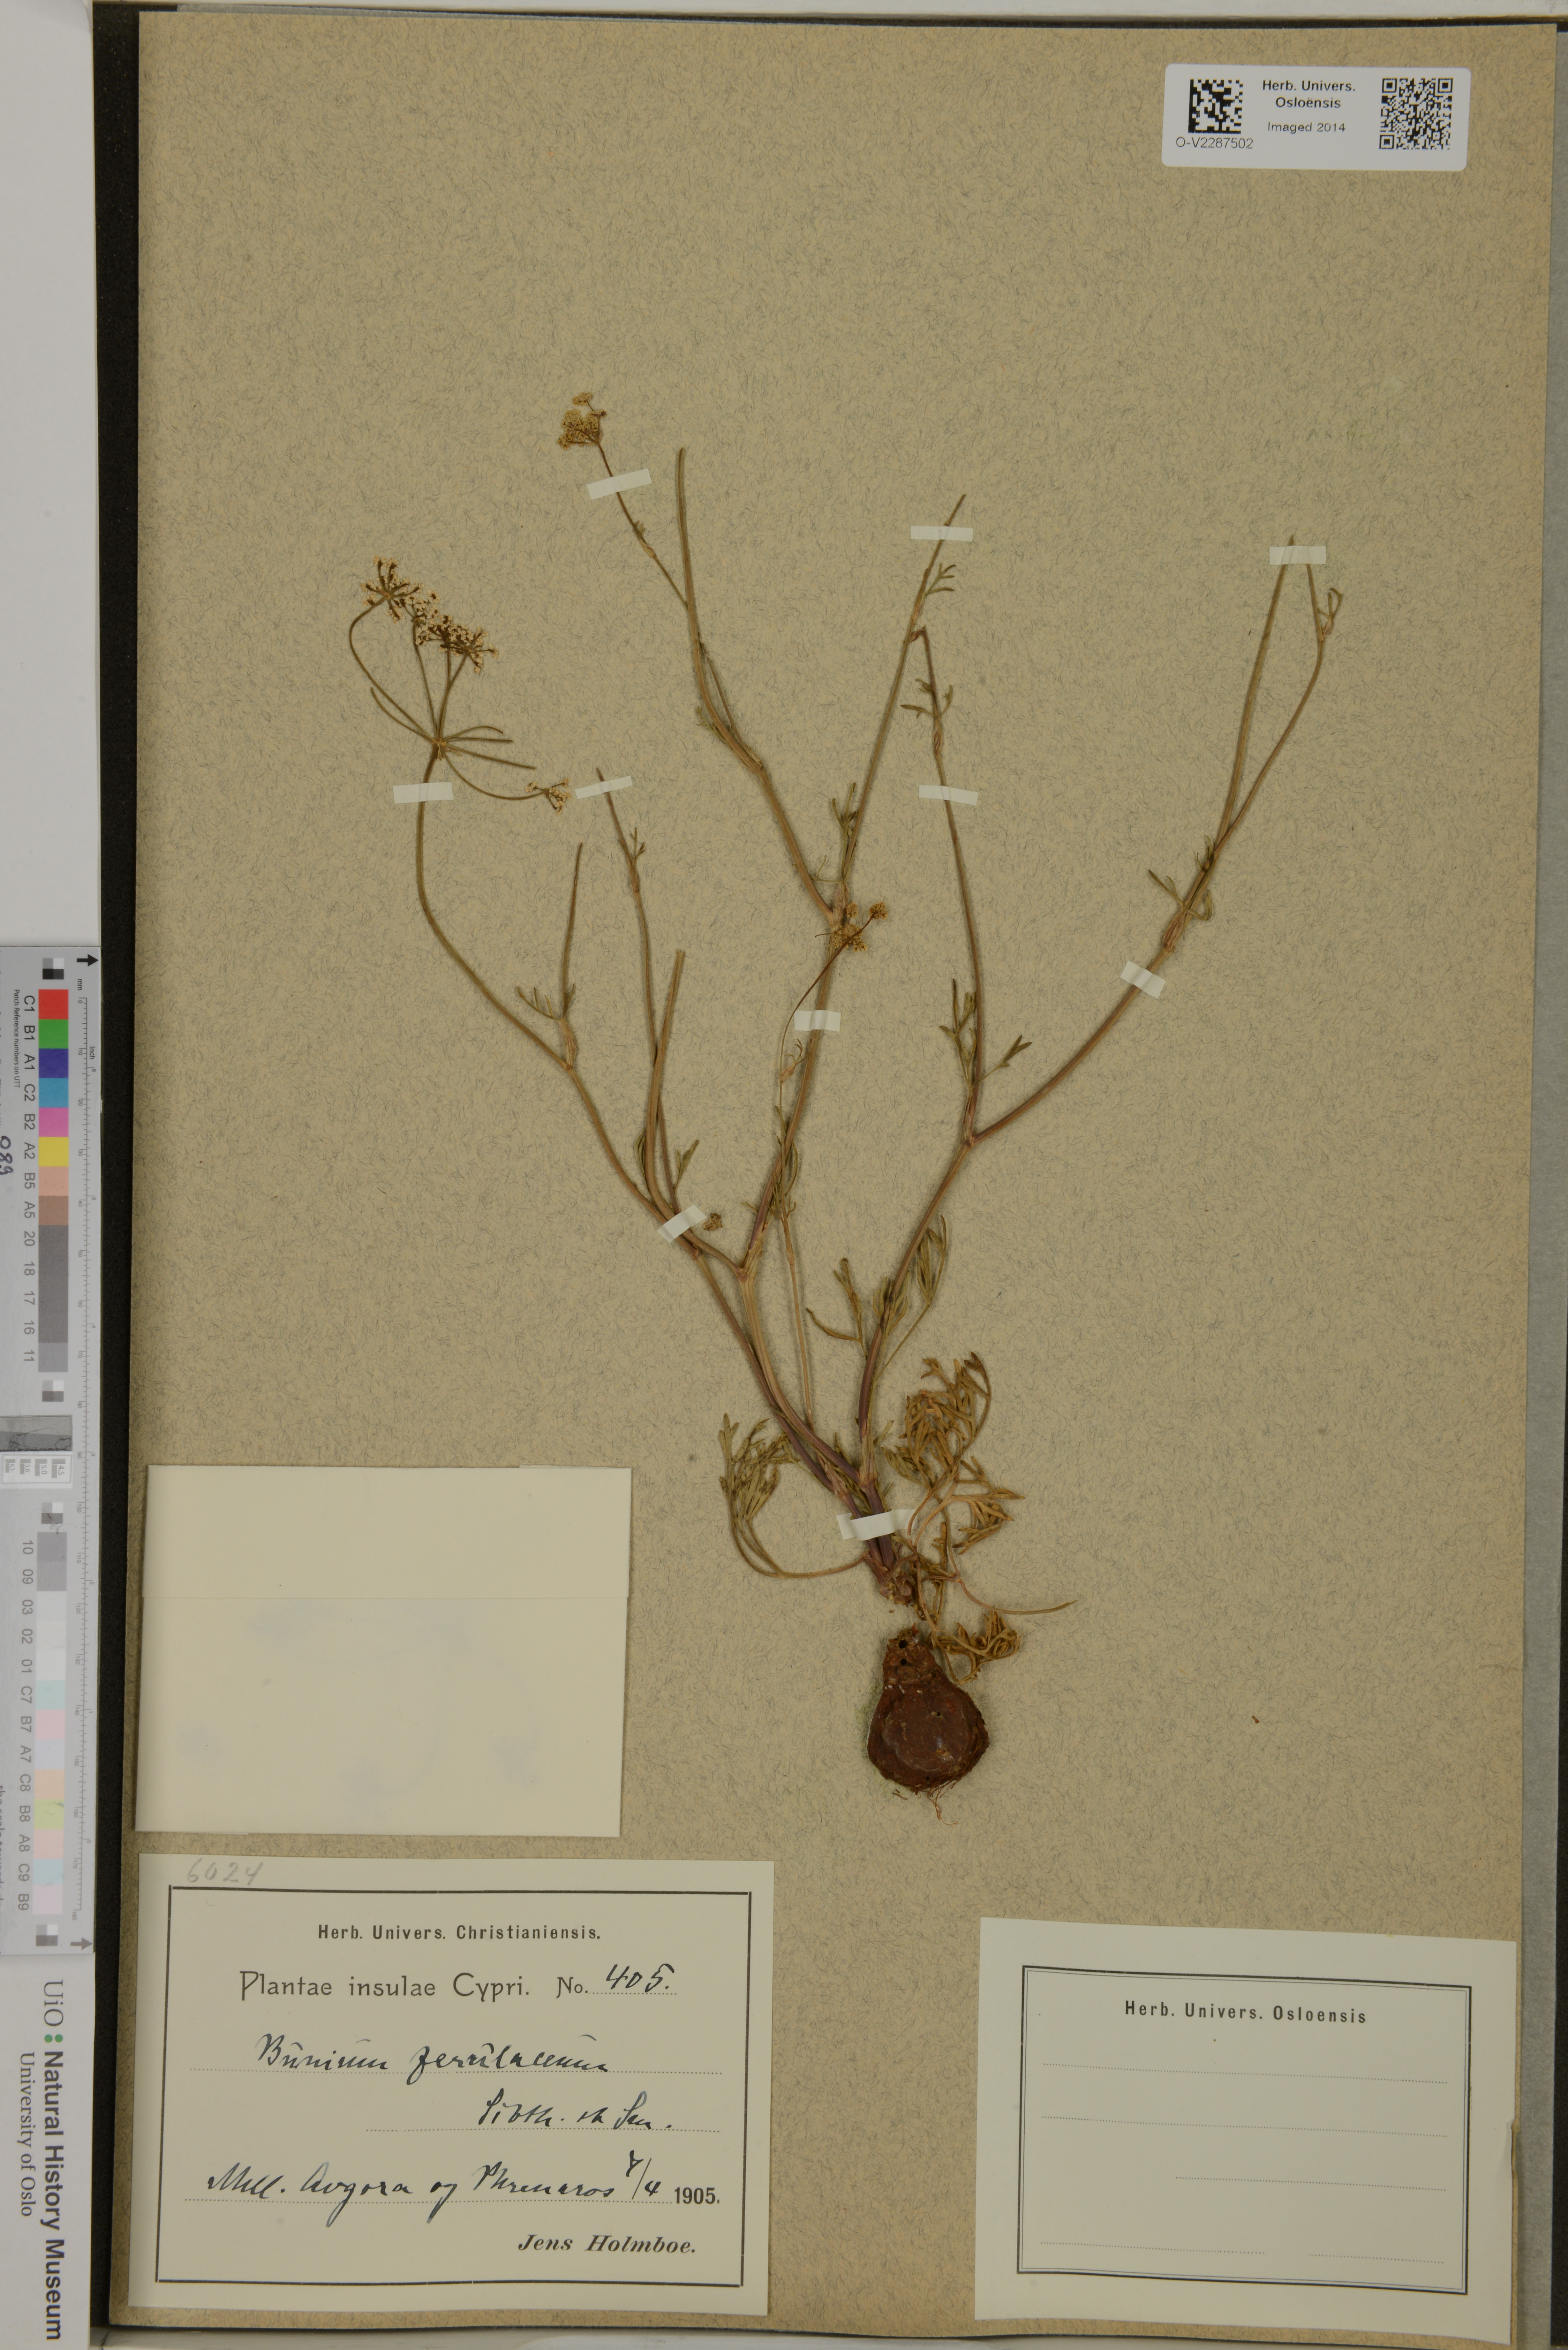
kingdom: Plantae
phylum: Tracheophyta
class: Magnoliopsida
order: Apiales
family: Apiaceae
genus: Bunium
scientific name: Bunium ferulaceum
